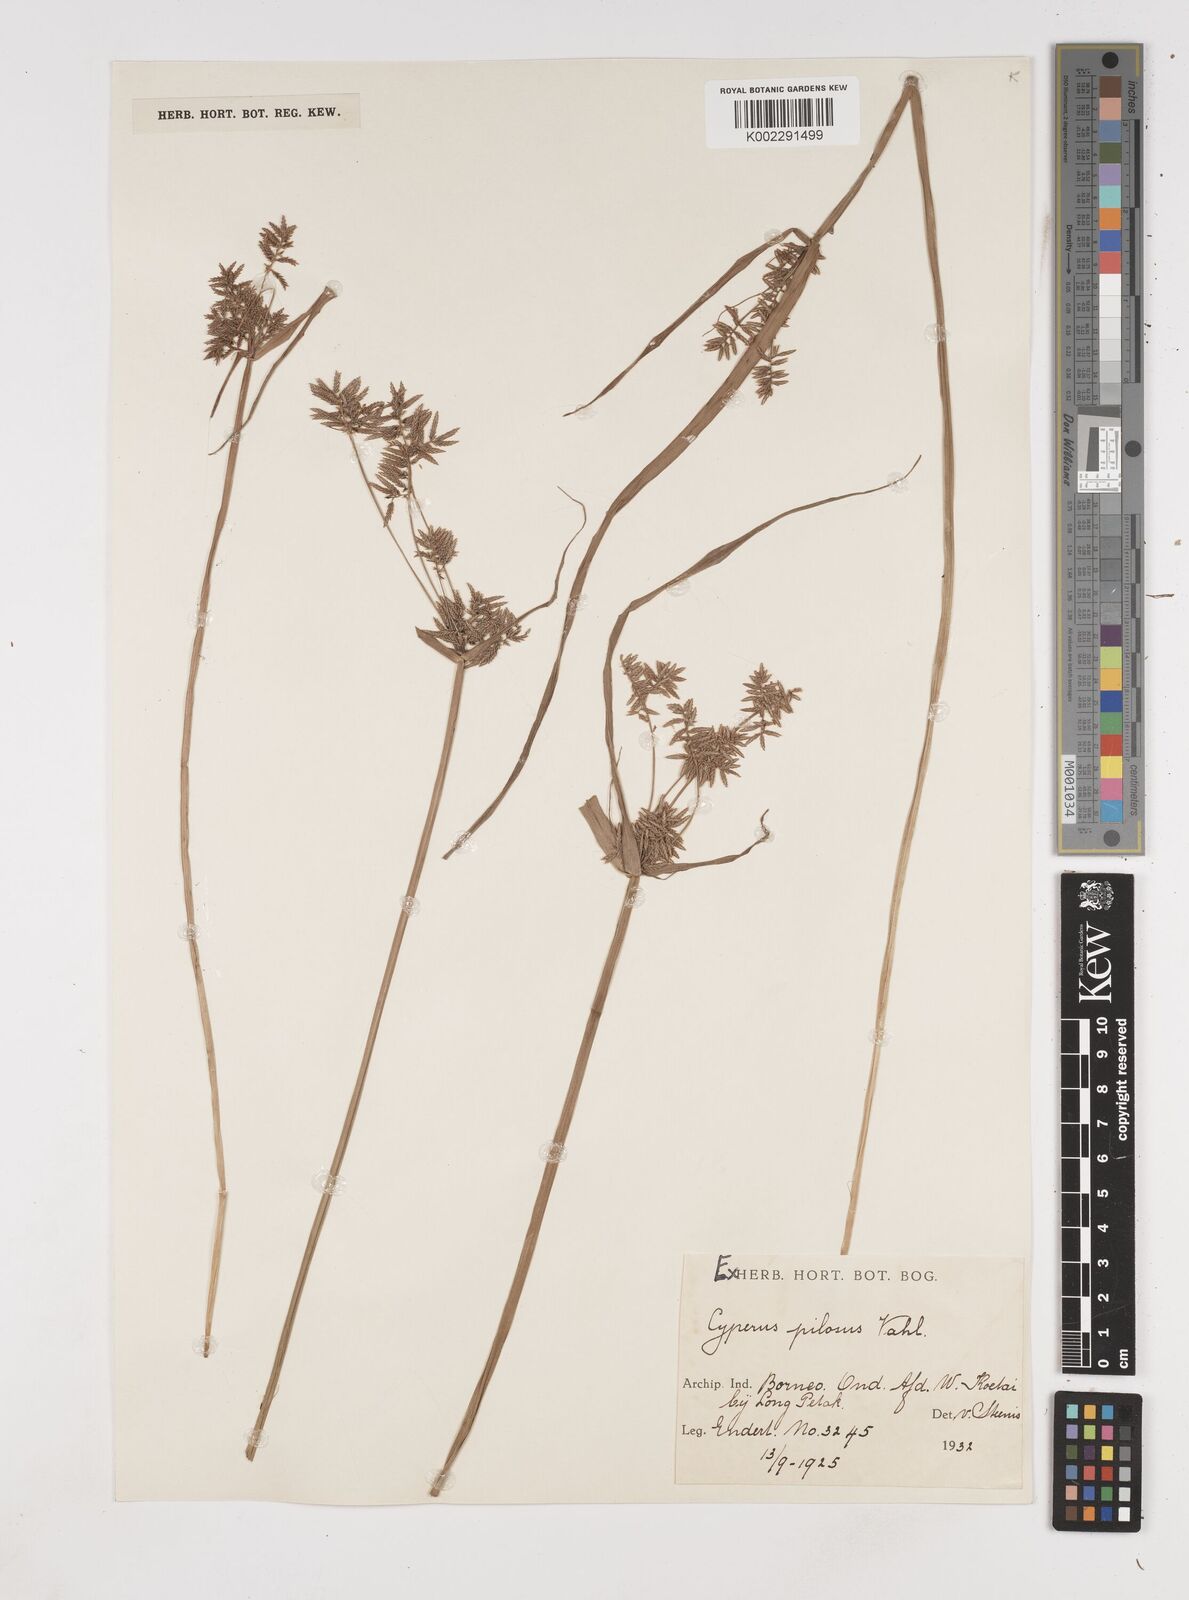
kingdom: Plantae
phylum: Tracheophyta
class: Liliopsida
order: Poales
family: Cyperaceae
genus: Cyperus
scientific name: Cyperus pilosus
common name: Fuzzy flatsedge
